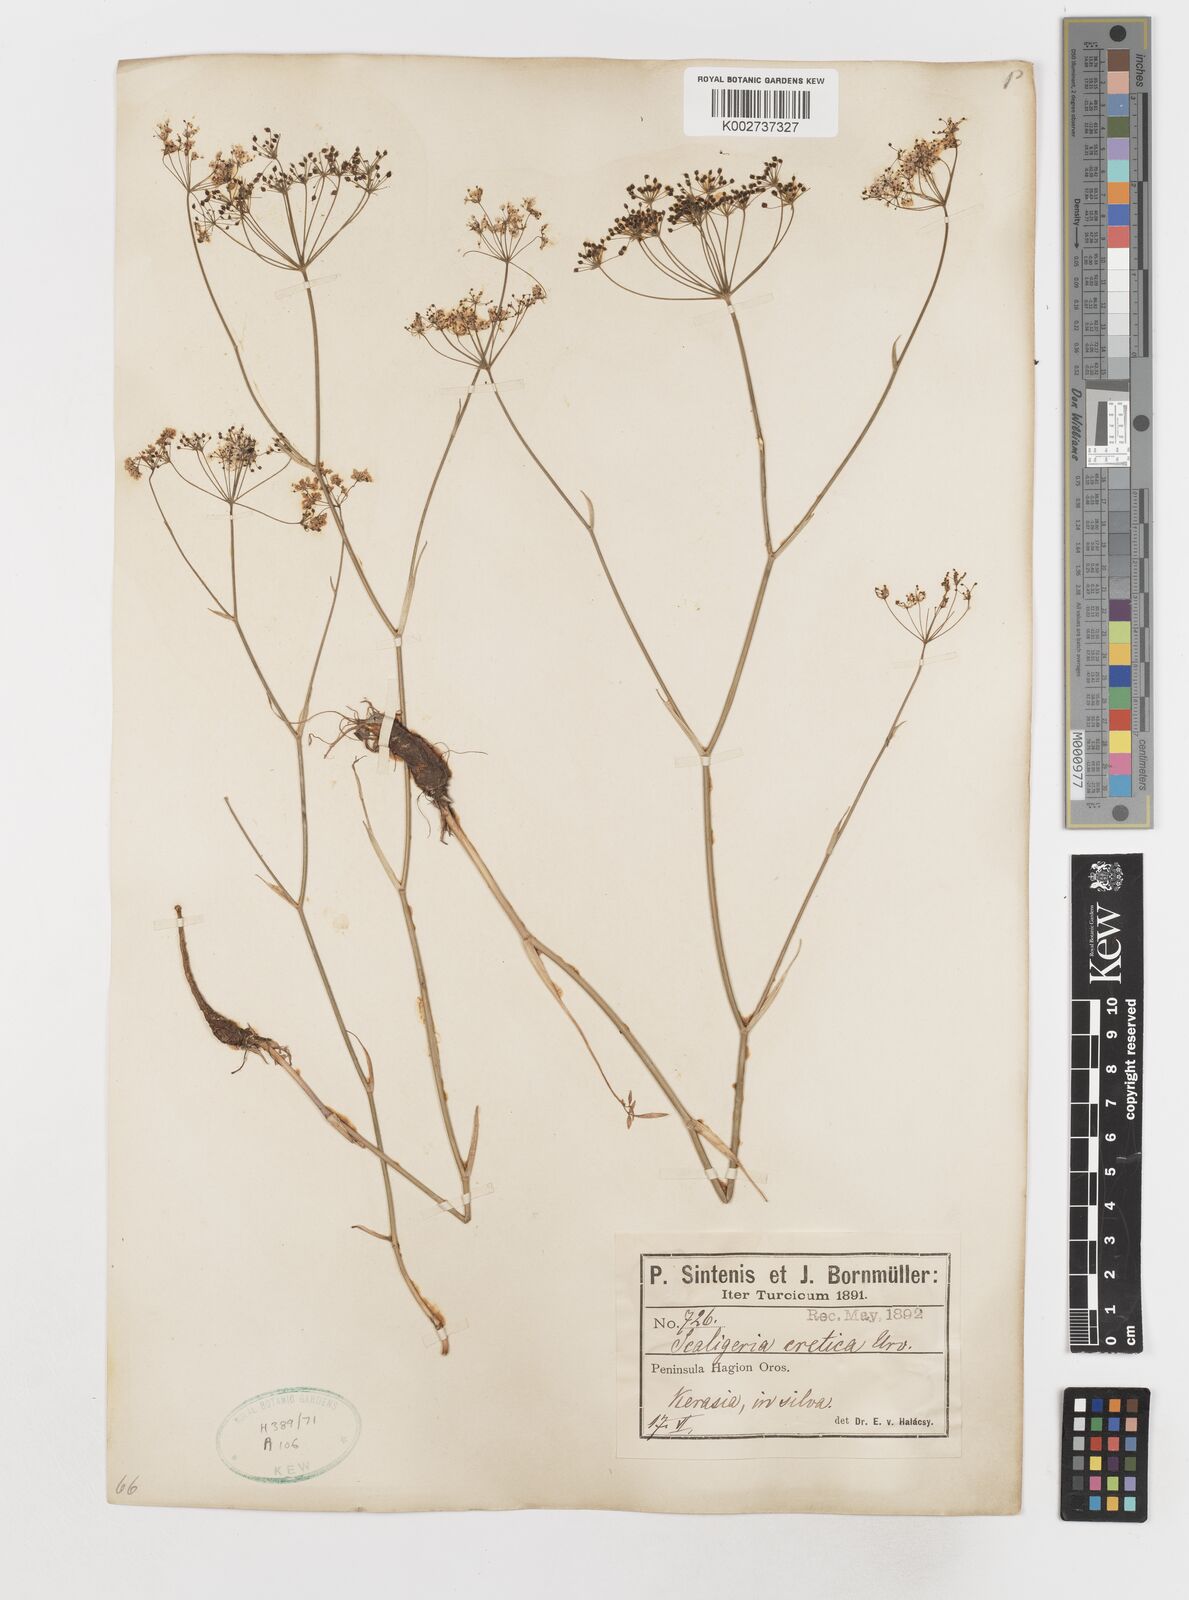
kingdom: Plantae
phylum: Tracheophyta
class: Magnoliopsida
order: Apiales
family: Apiaceae
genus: Scaligeria
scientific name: Scaligeria napiformis
